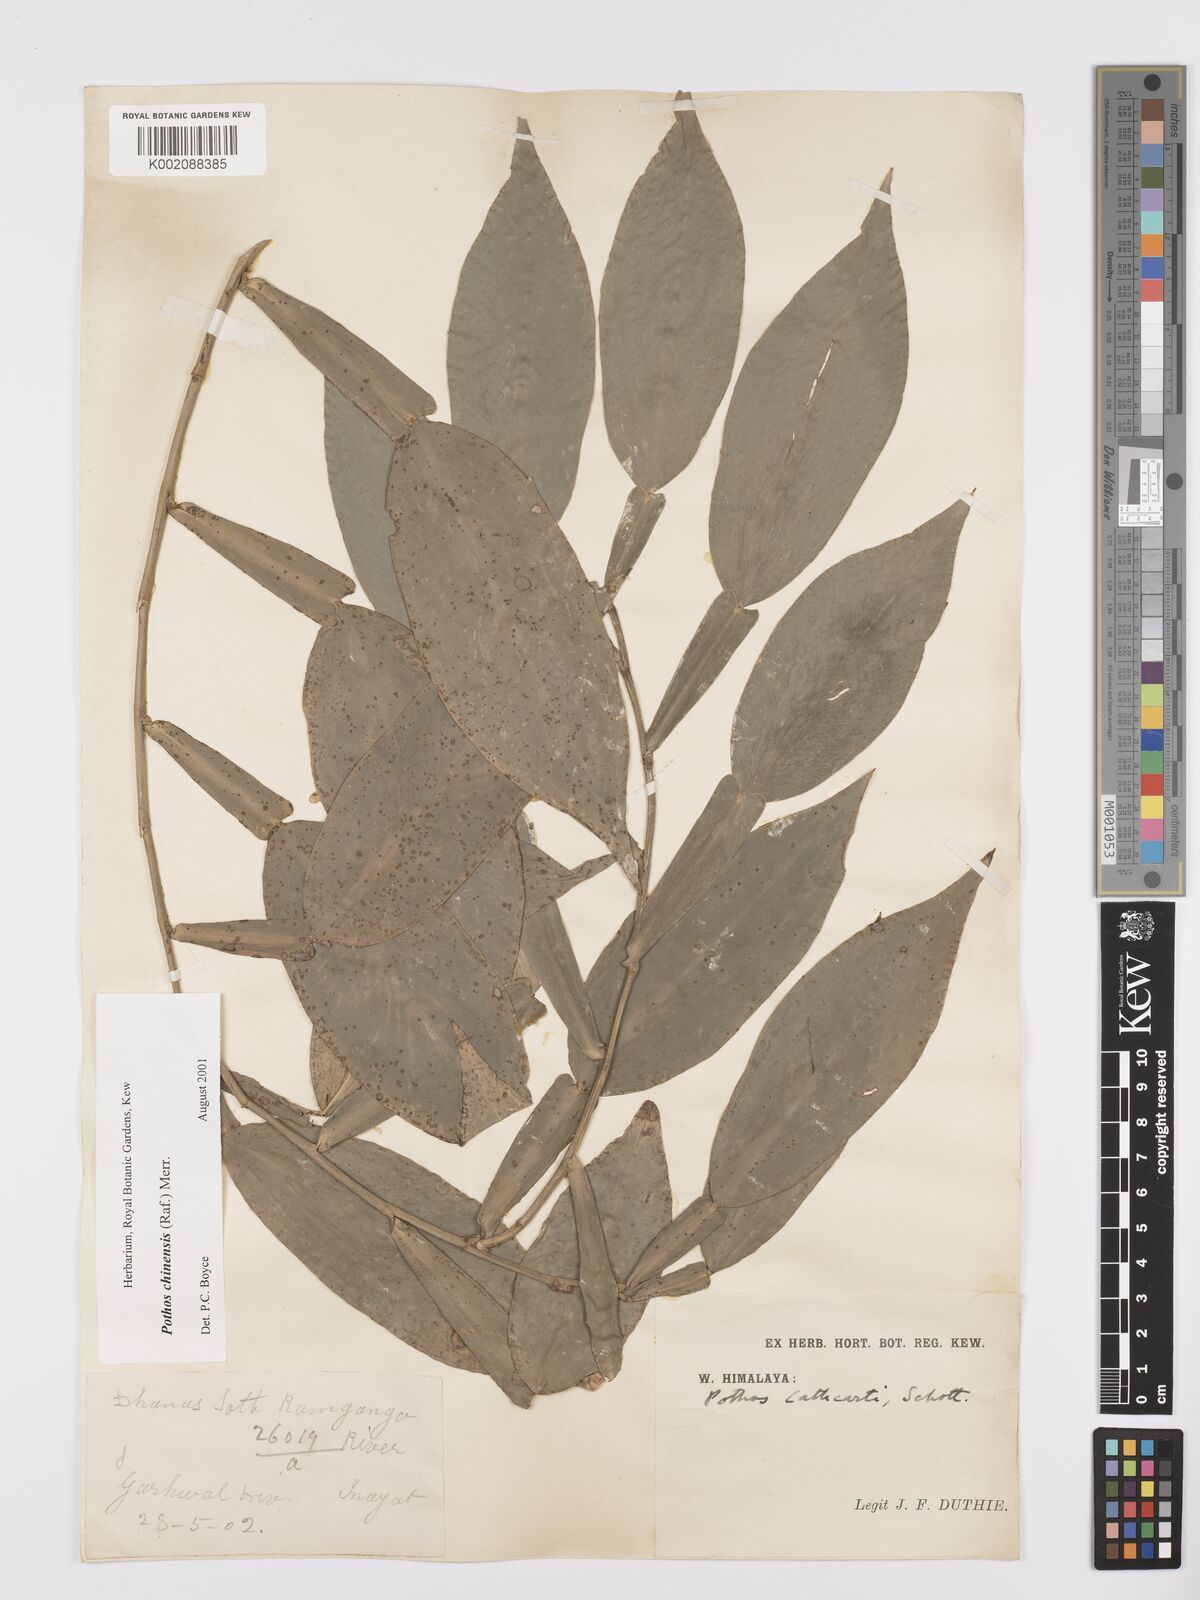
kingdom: Plantae
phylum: Tracheophyta
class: Liliopsida
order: Alismatales
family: Araceae
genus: Pothos
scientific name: Pothos chinensis
